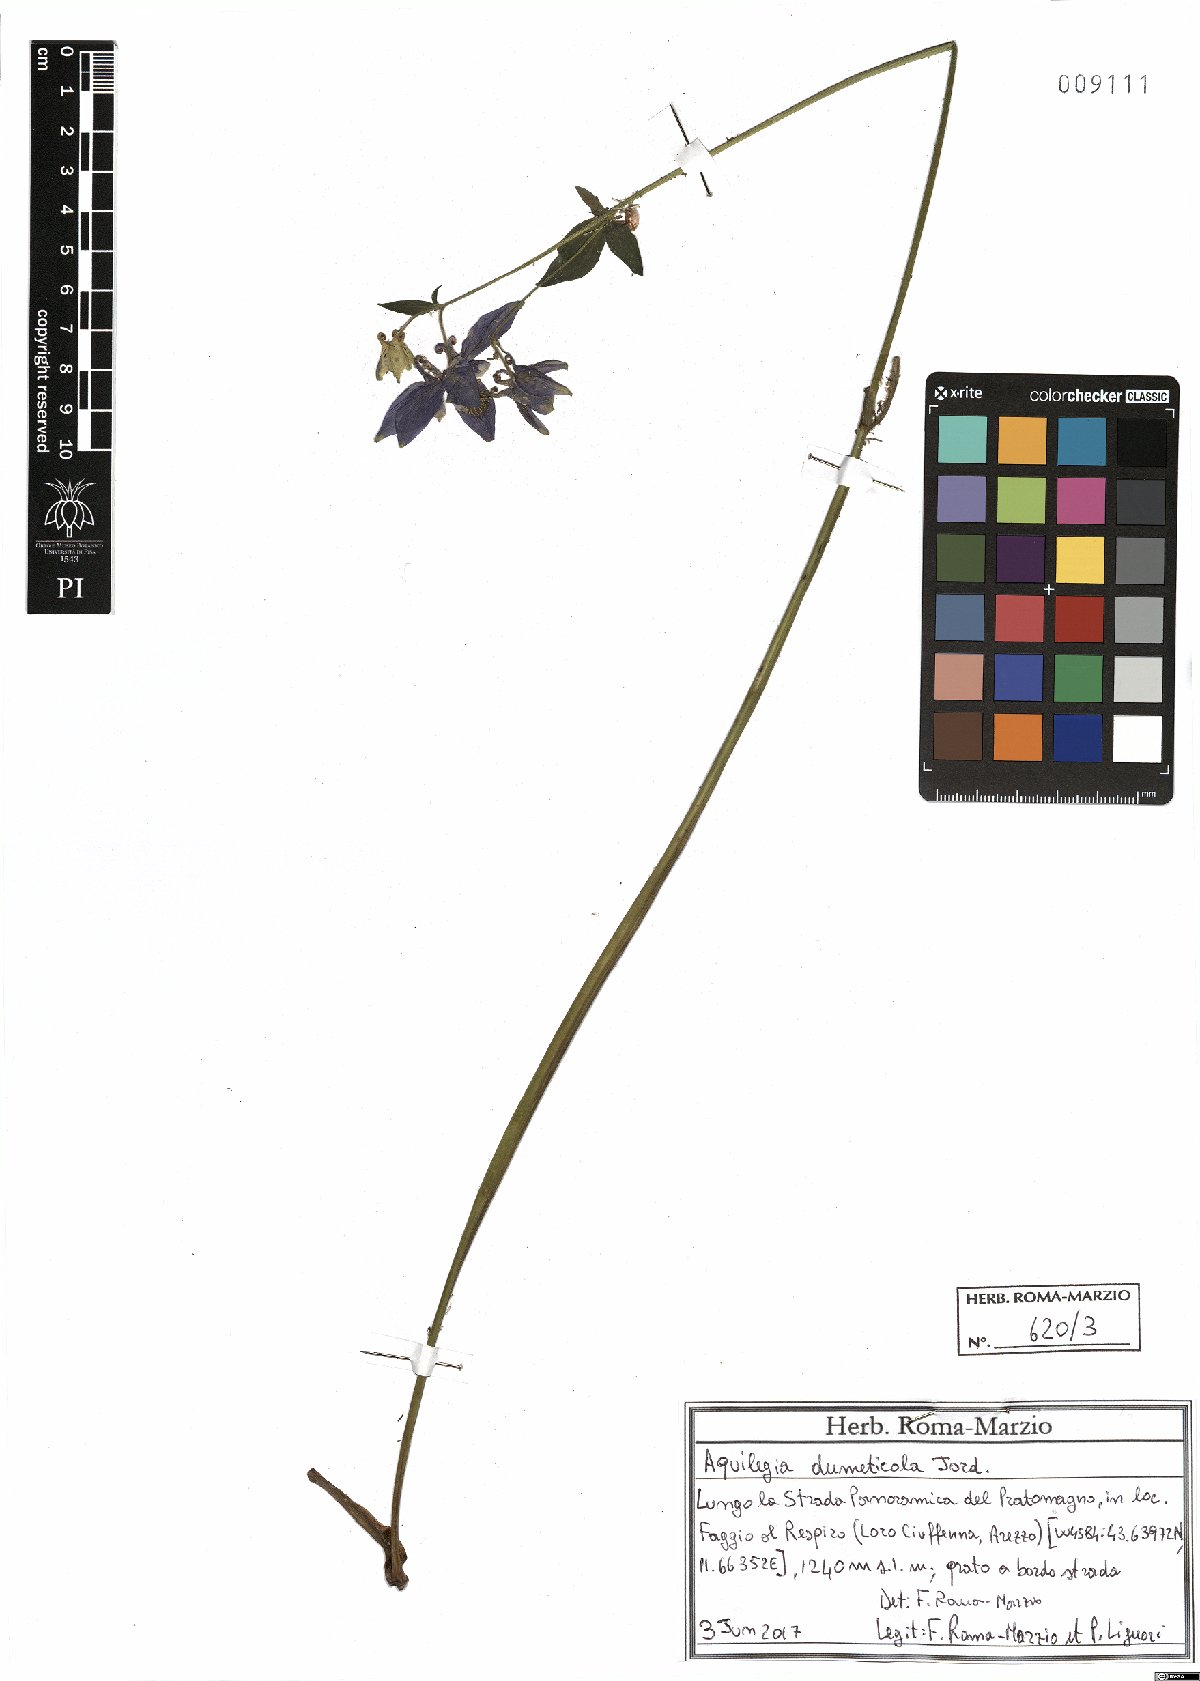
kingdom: Plantae
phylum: Tracheophyta
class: Magnoliopsida
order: Ranunculales
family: Ranunculaceae
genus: Aquilegia
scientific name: Aquilegia dumeticola
